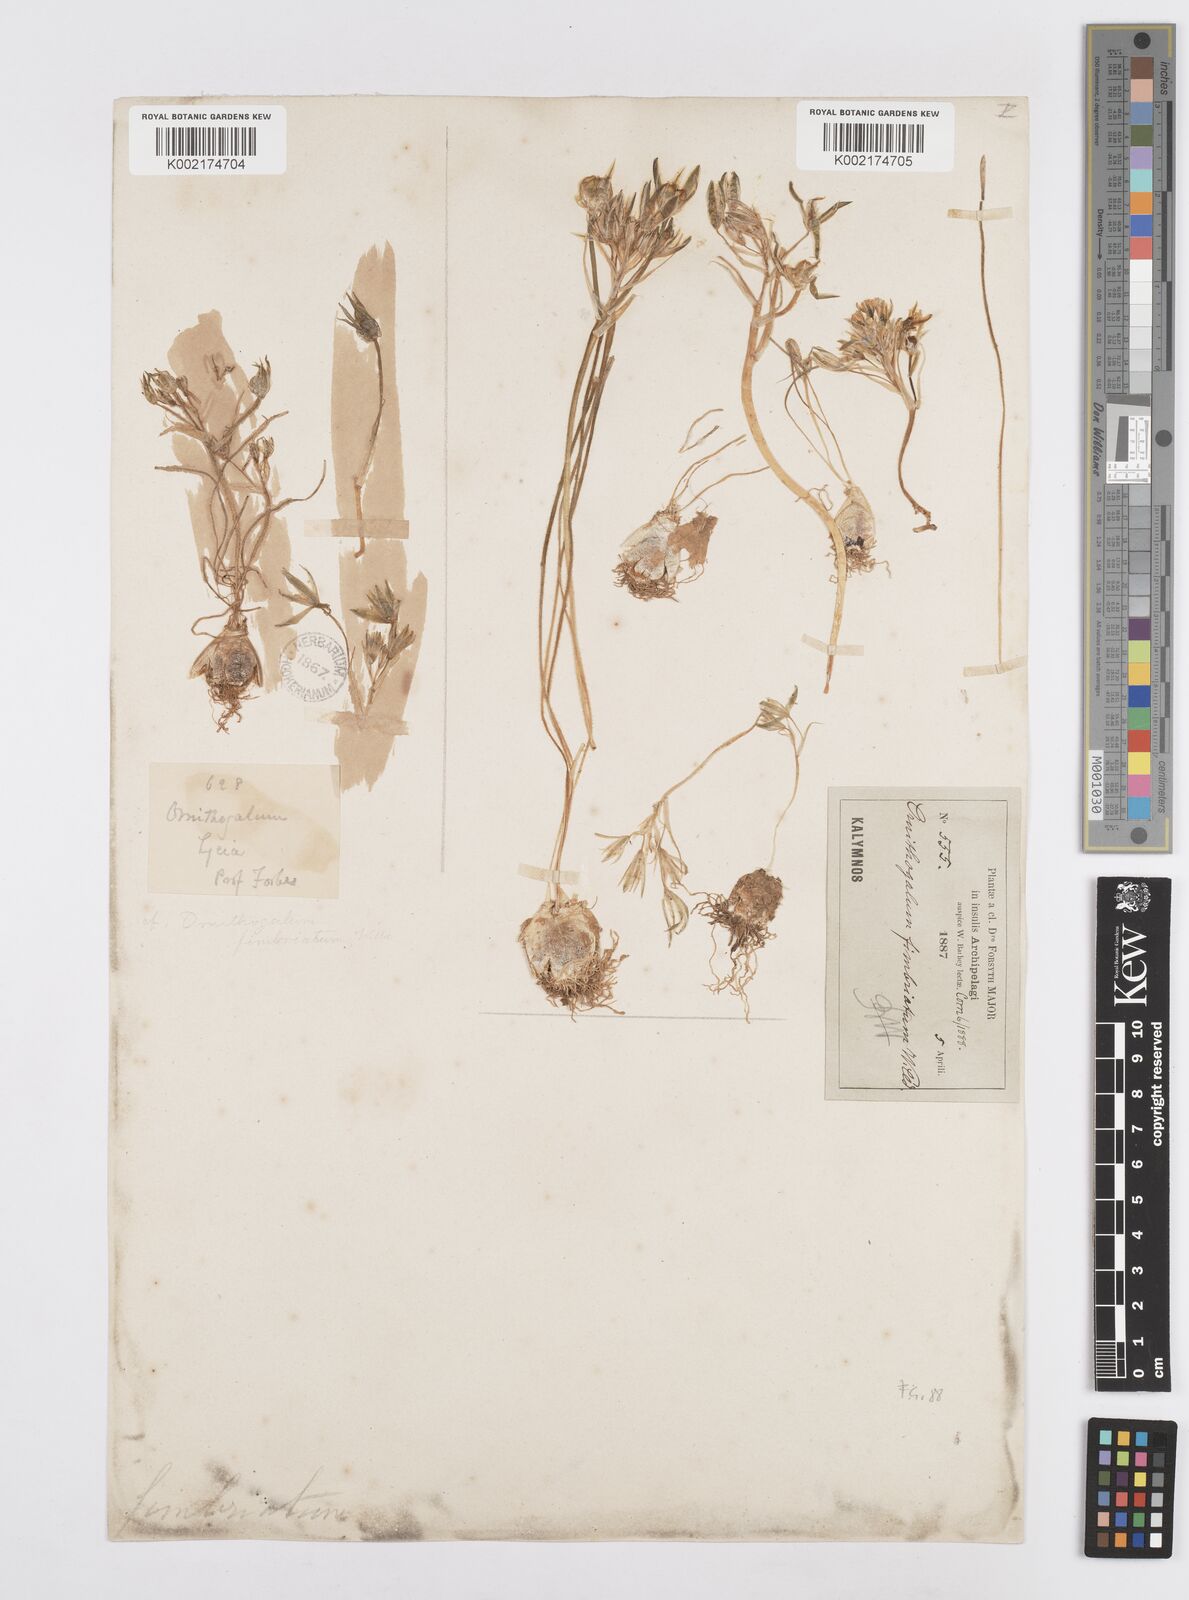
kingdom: Plantae
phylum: Tracheophyta
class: Liliopsida
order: Asparagales
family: Asparagaceae
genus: Ornithogalum
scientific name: Ornithogalum fimbriatum
